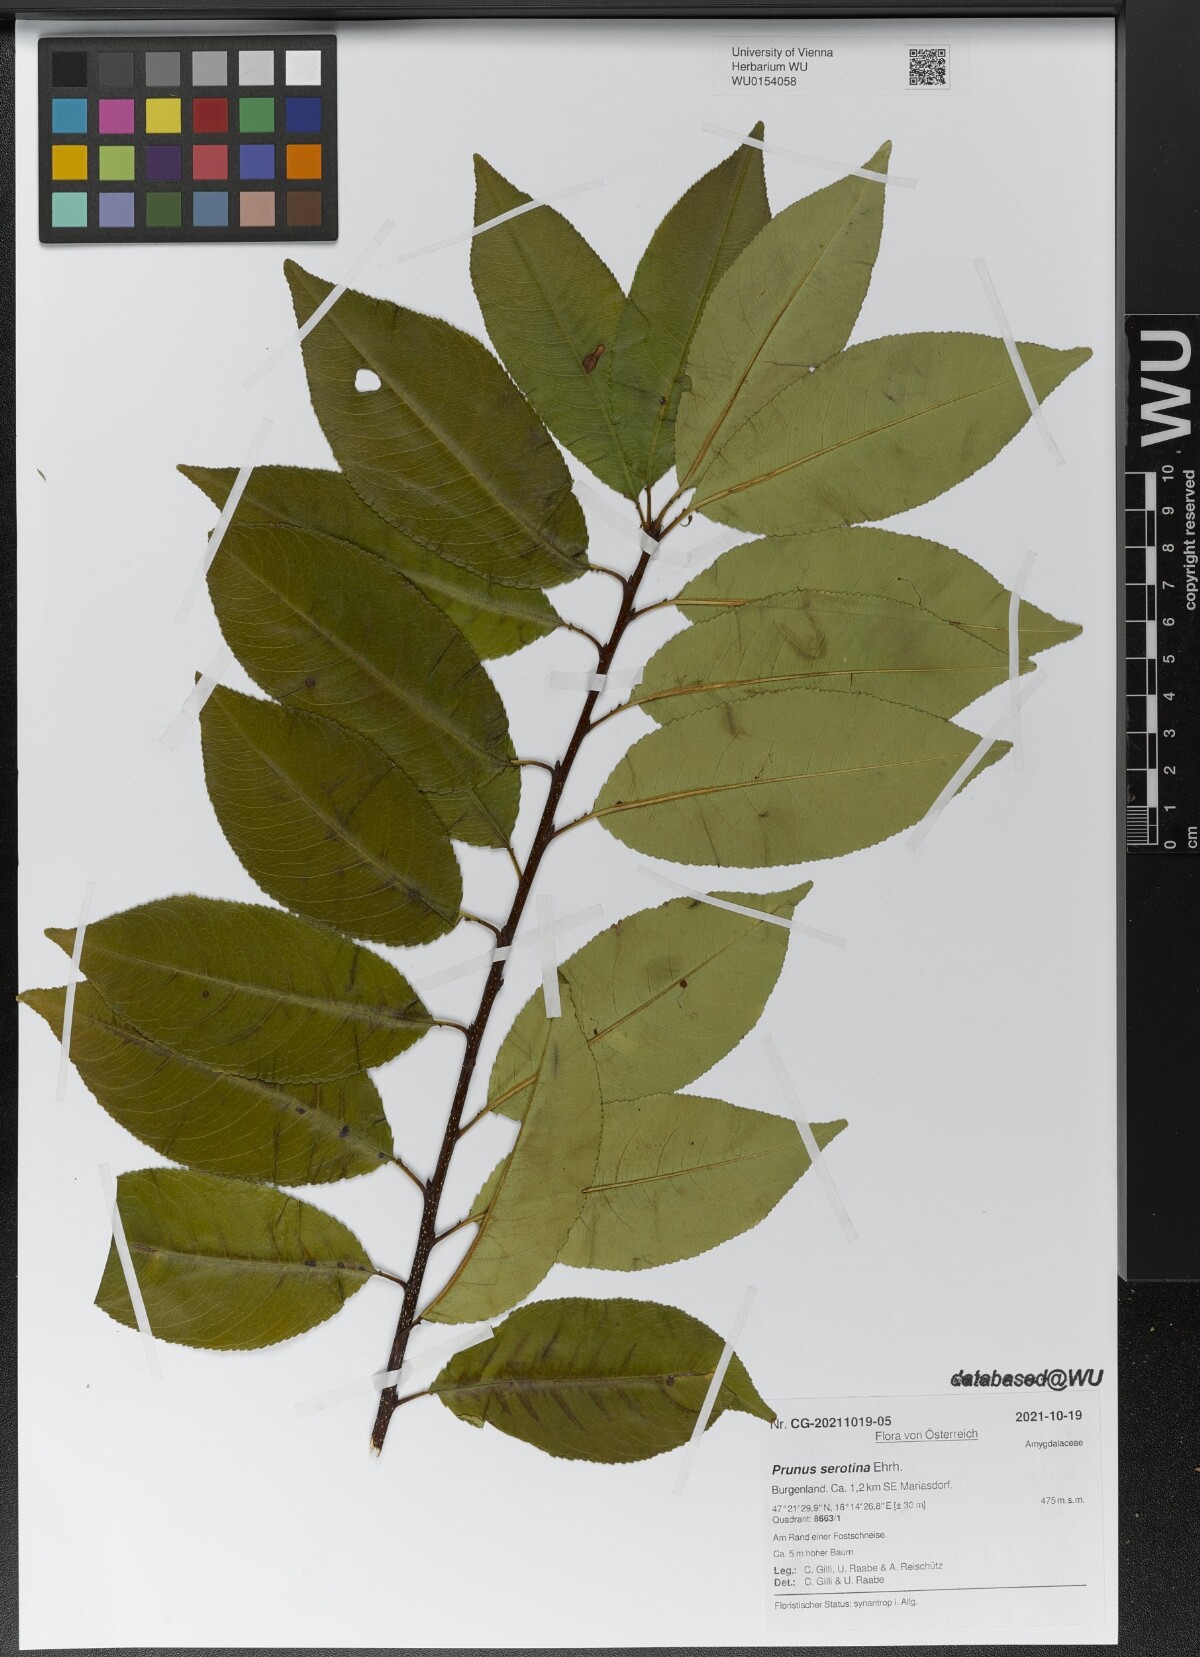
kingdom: Plantae
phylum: Tracheophyta
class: Magnoliopsida
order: Rosales
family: Rosaceae
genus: Prunus
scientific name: Prunus serotina
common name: Black cherry
